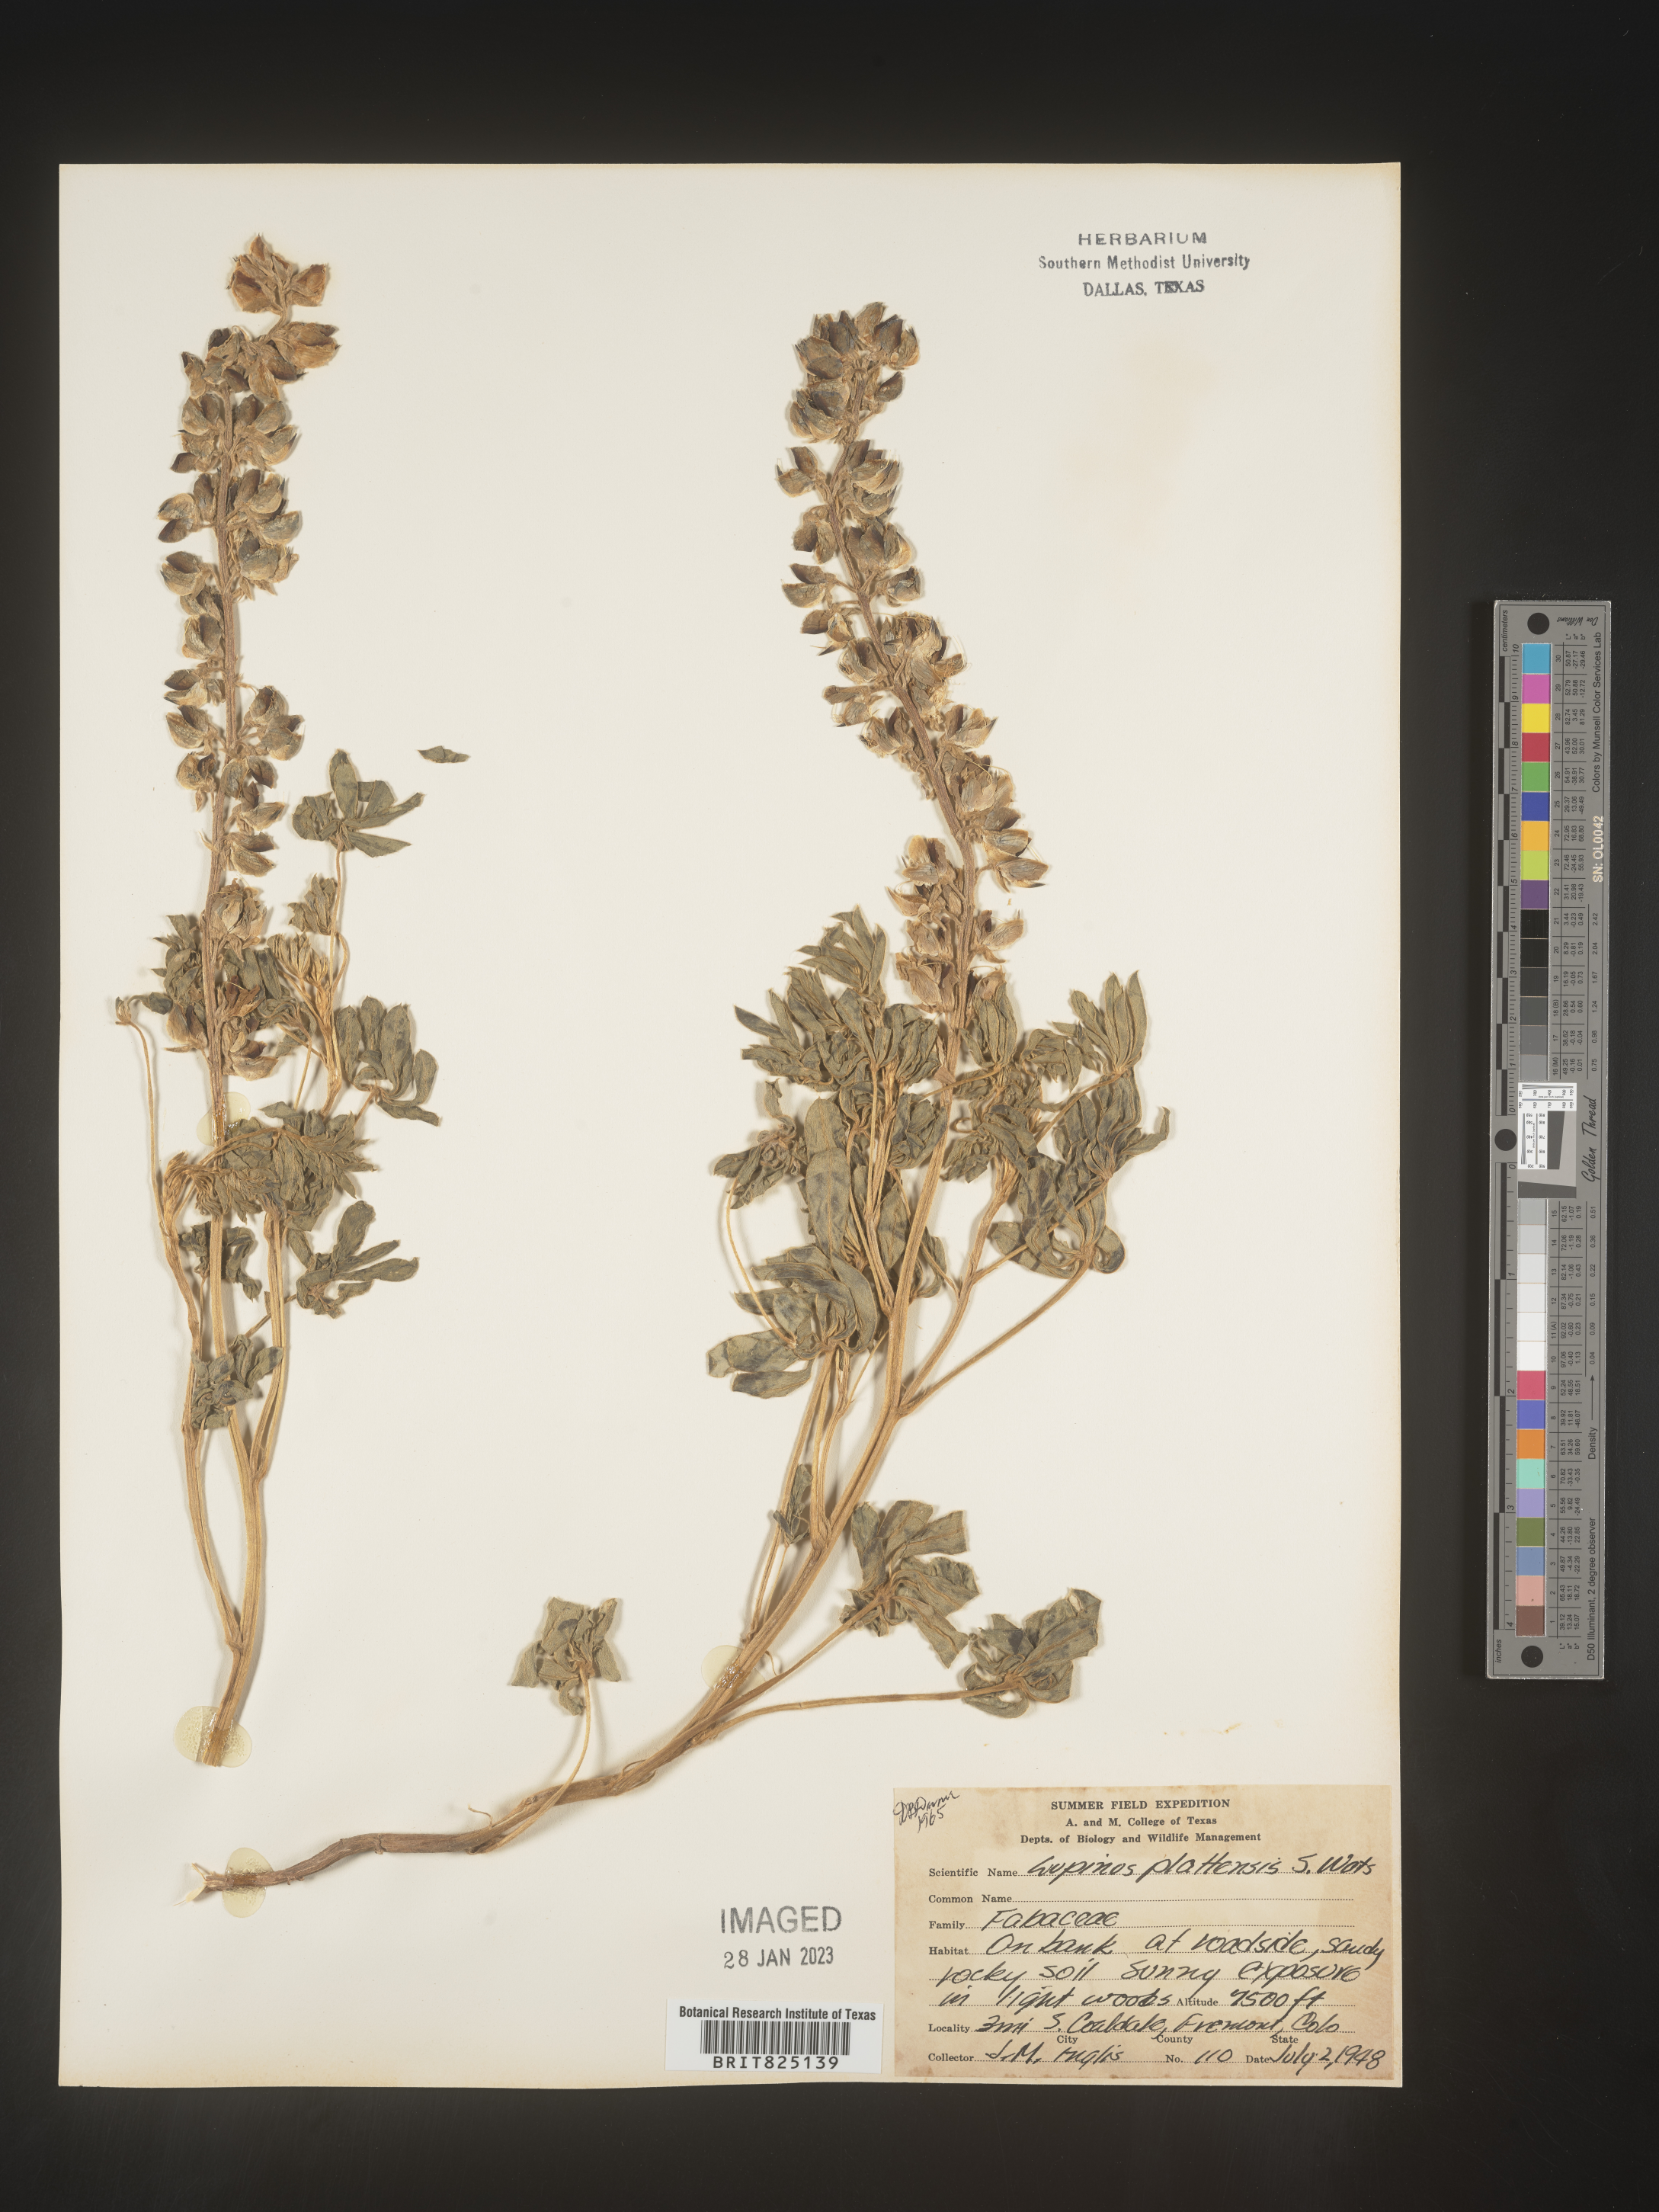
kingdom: Plantae
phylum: Tracheophyta
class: Magnoliopsida
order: Fabales
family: Fabaceae
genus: Lupinus
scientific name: Lupinus plattensis
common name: Platte lupine
